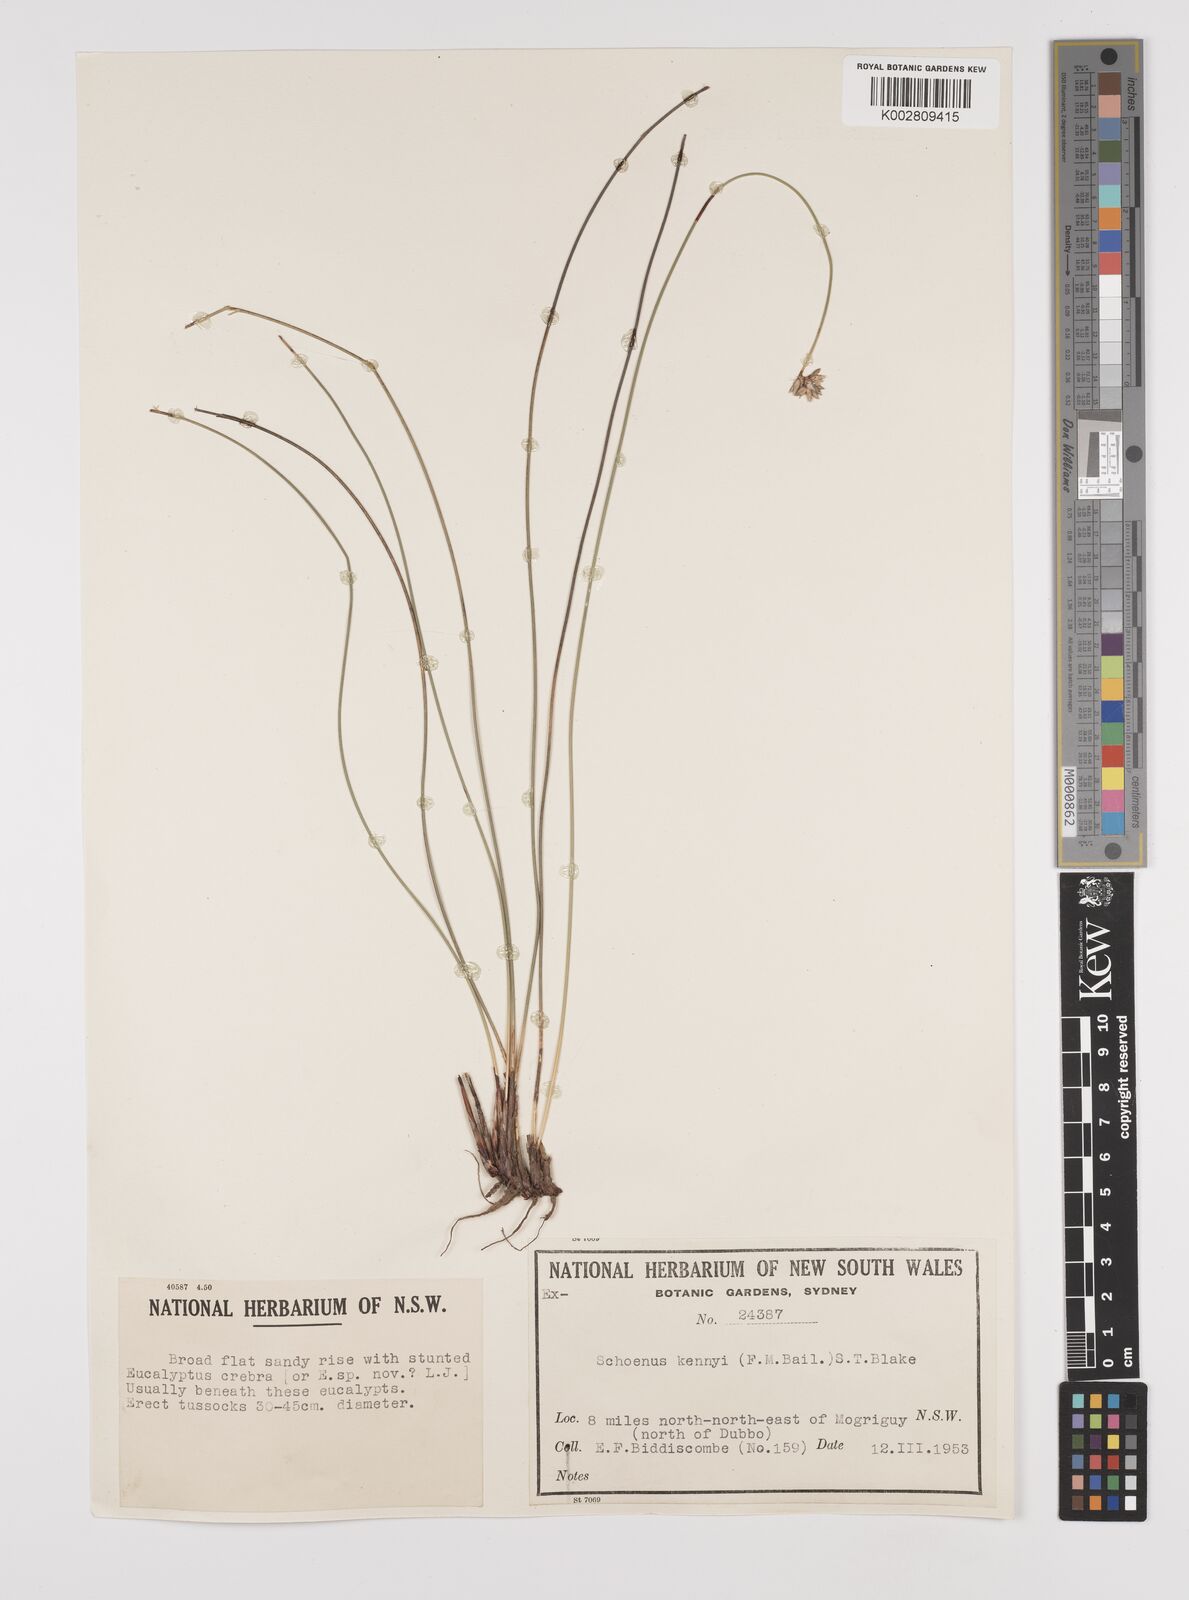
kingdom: Plantae
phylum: Tracheophyta
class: Liliopsida
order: Poales
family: Cyperaceae
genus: Schoenus
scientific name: Schoenus kennyi
